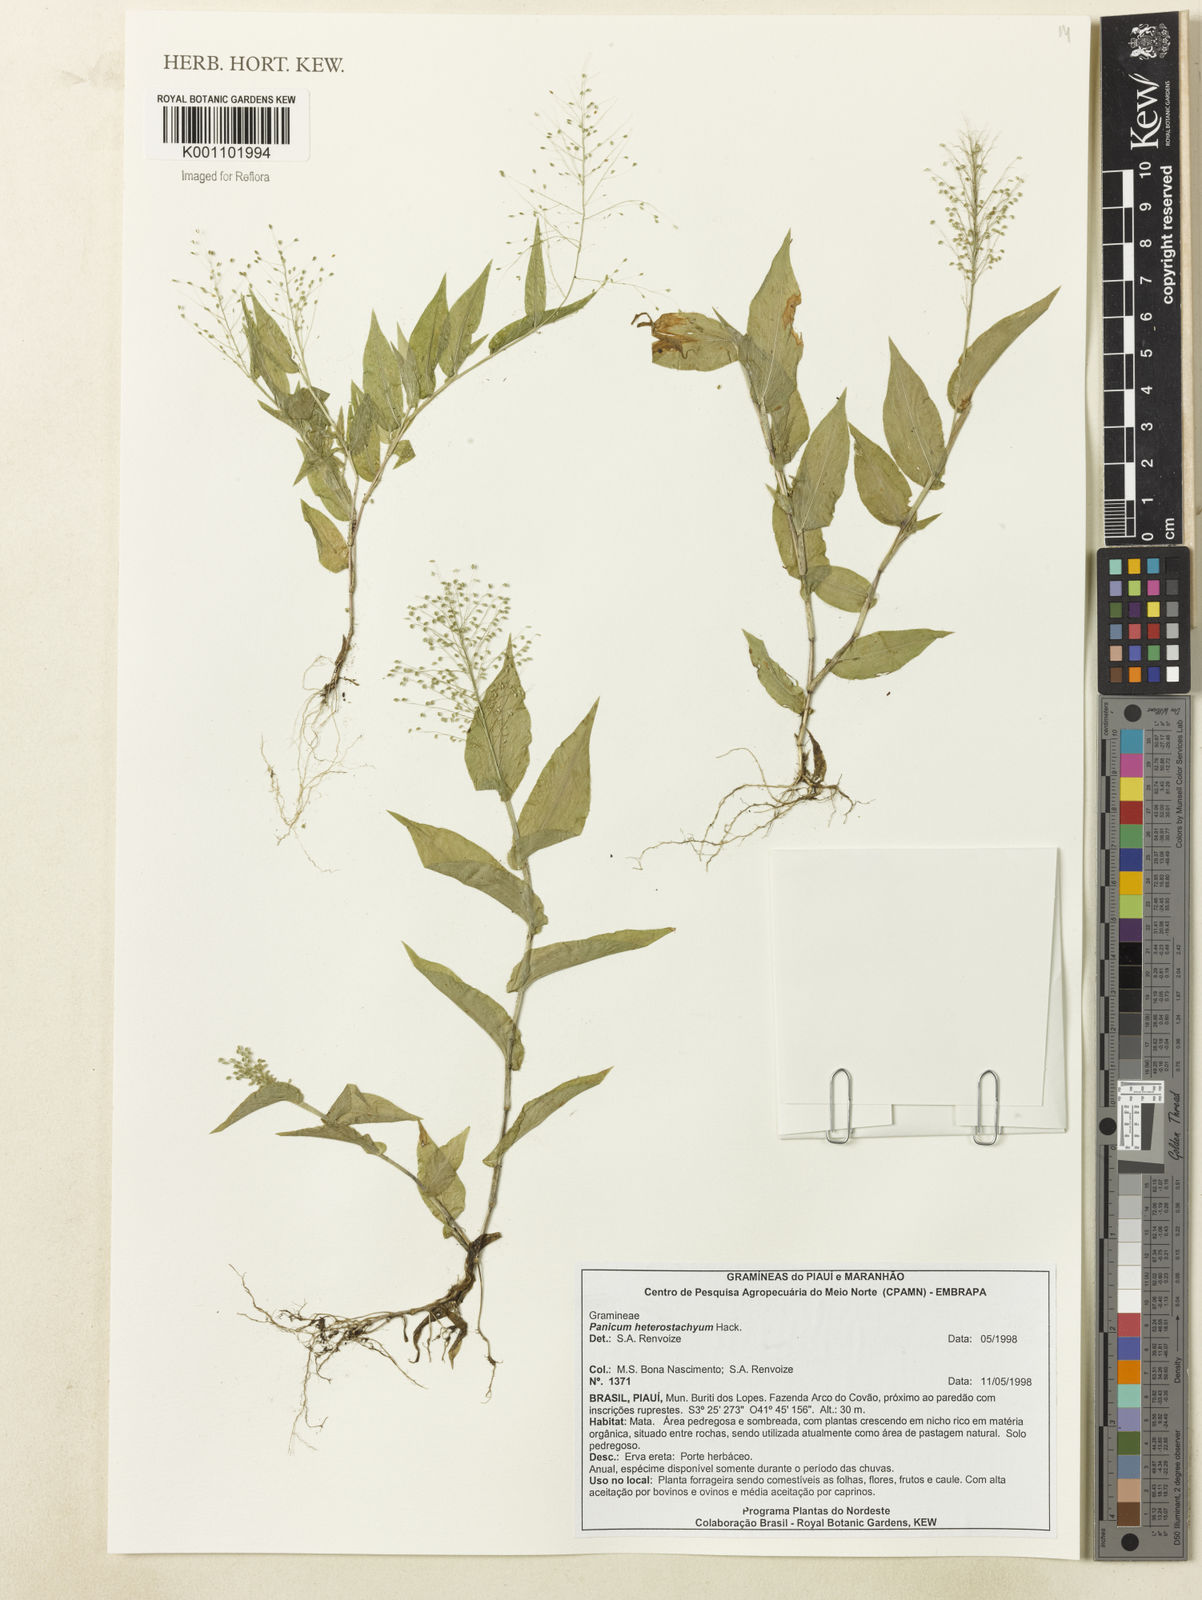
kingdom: Plantae
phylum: Tracheophyta
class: Liliopsida
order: Poales
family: Poaceae
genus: Panicum
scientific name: Panicum hirtum
